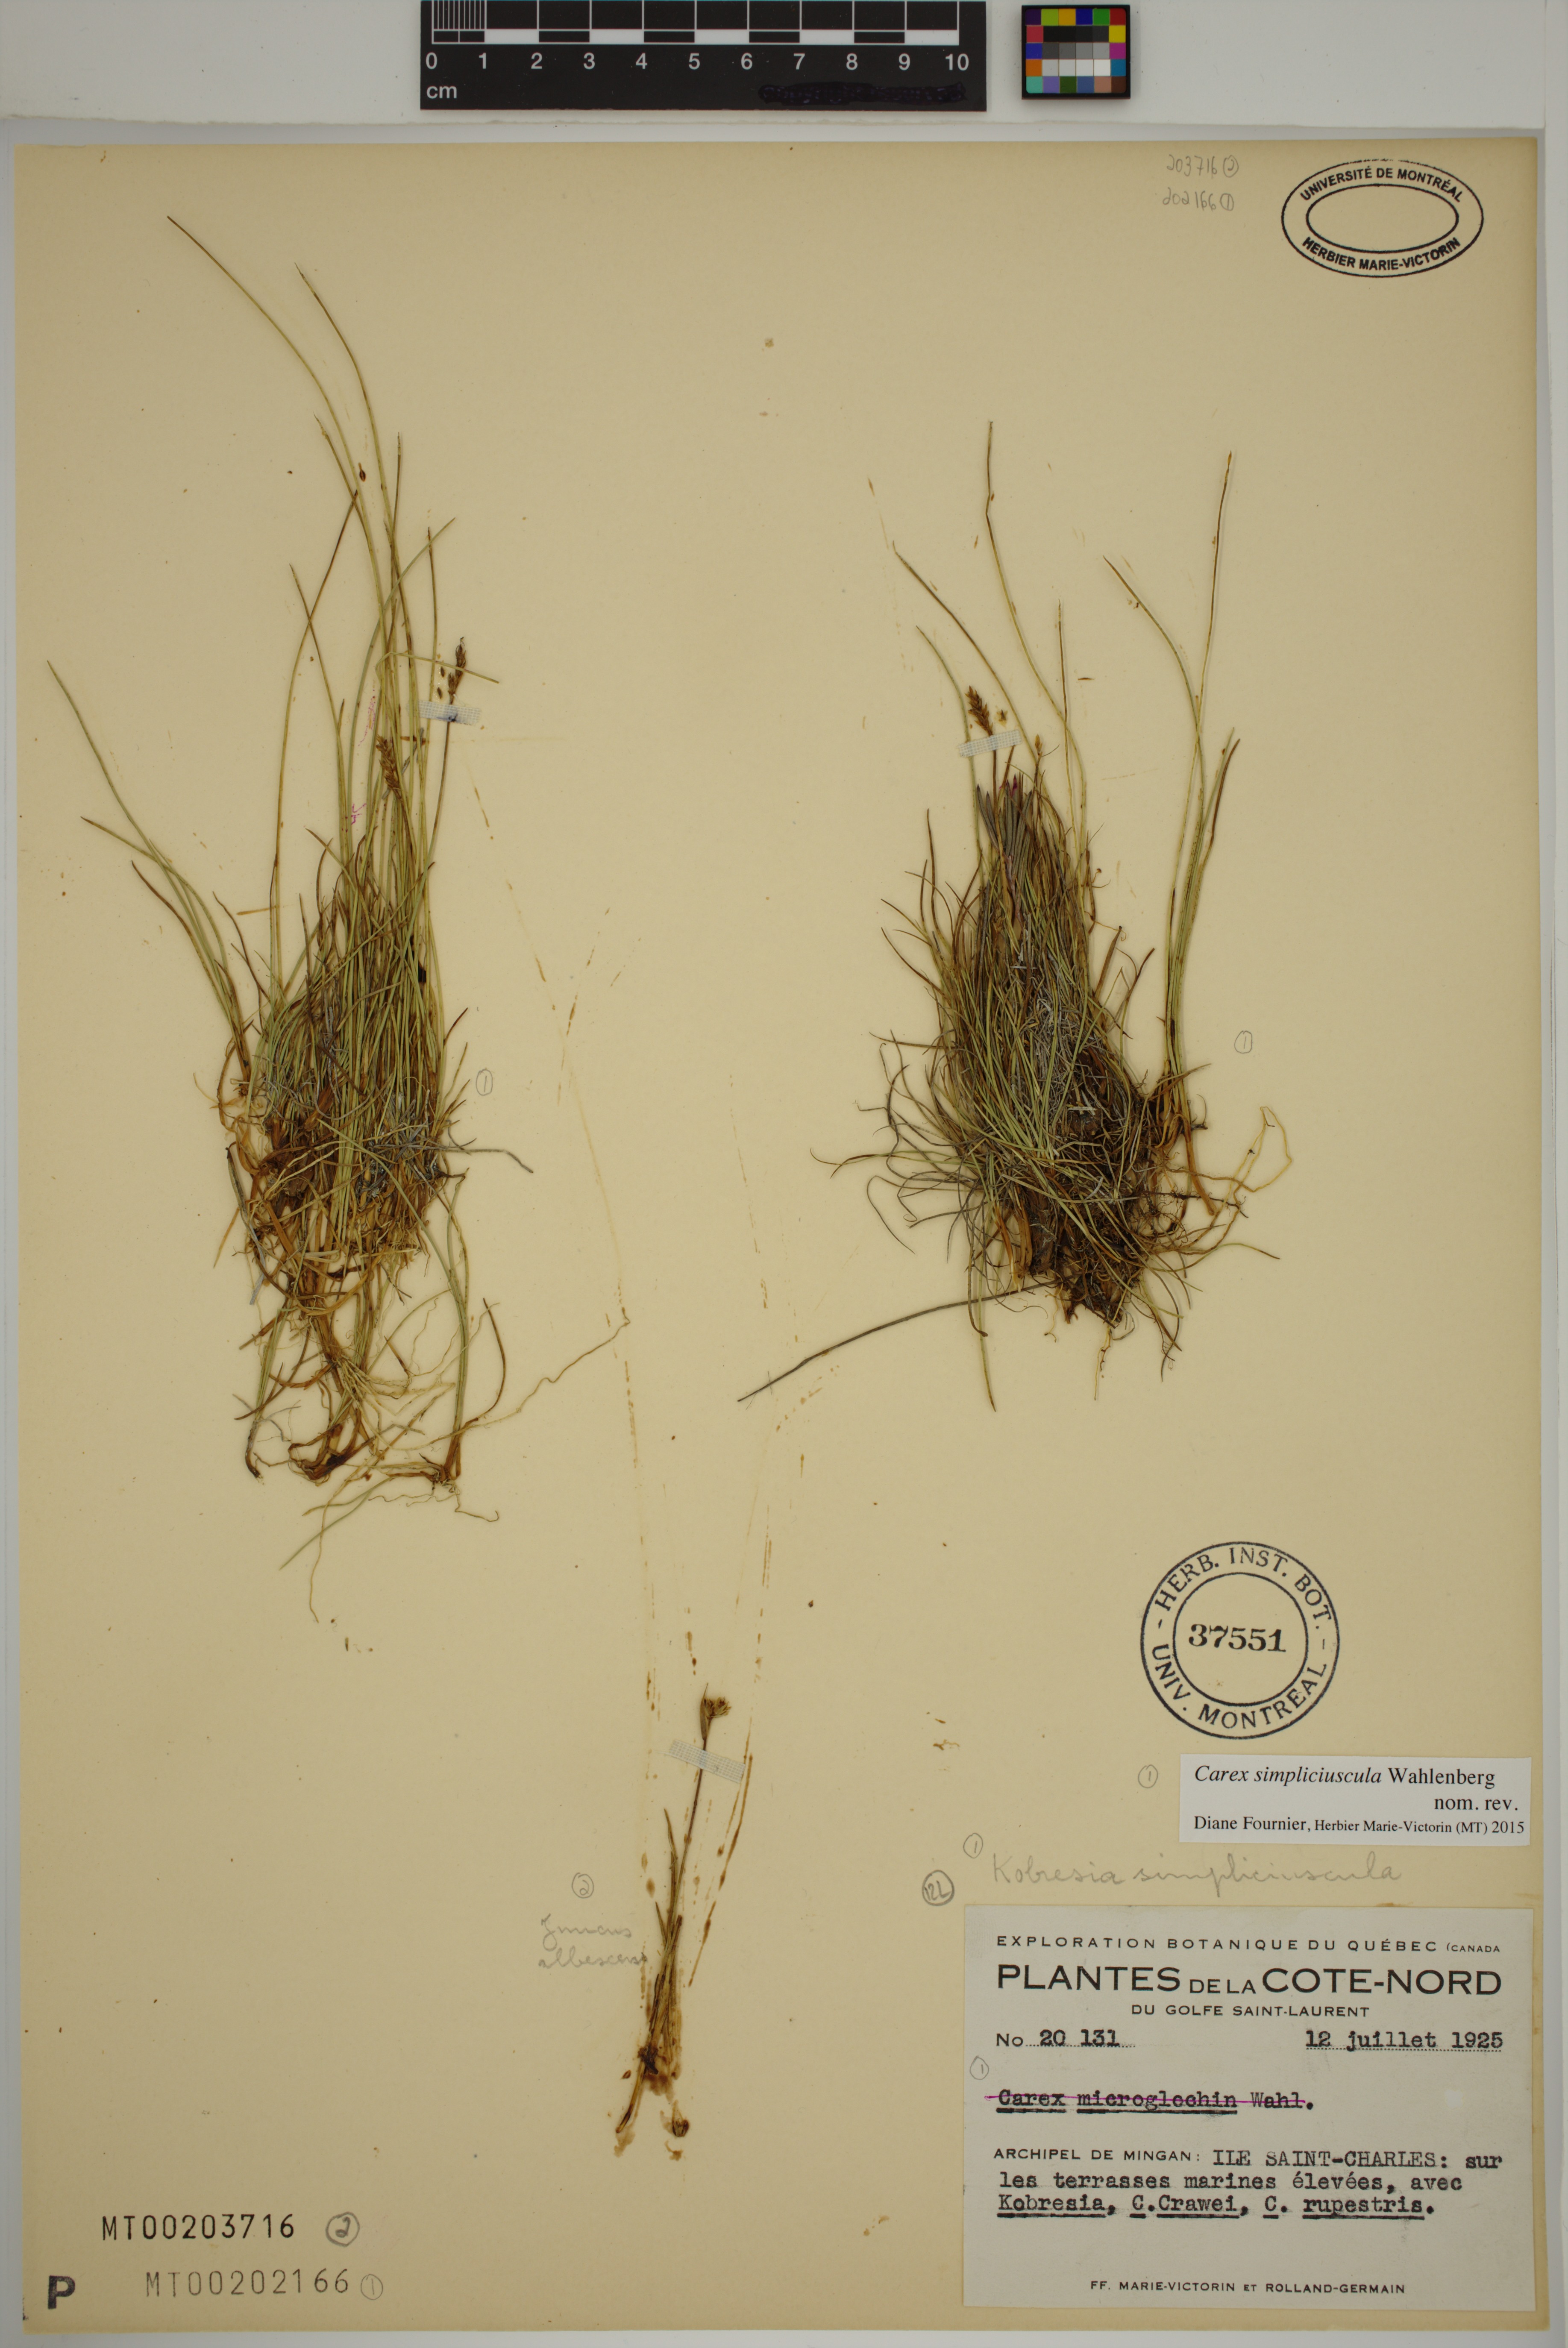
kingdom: Plantae
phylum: Tracheophyta
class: Liliopsida
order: Poales
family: Cyperaceae
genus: Carex
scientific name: Carex simpliciuscula
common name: Simple bog sedge
